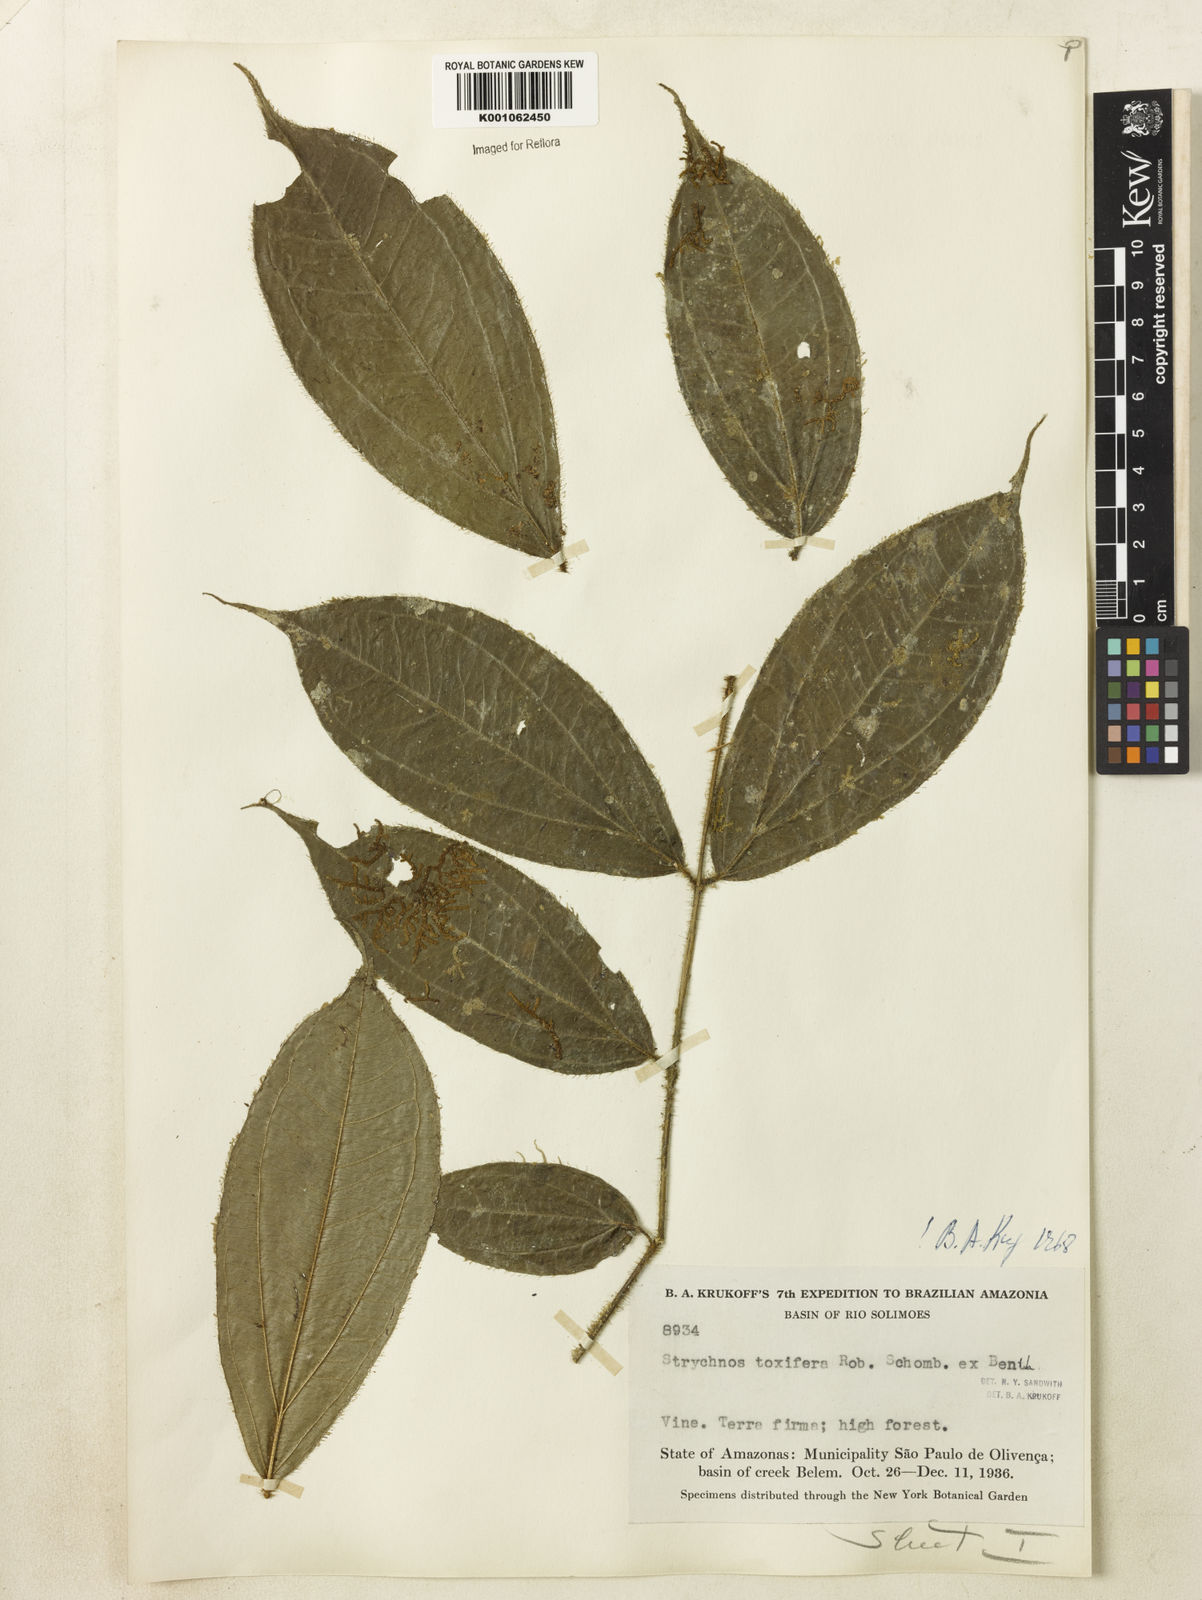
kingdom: Plantae
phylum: Tracheophyta
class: Magnoliopsida
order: Gentianales
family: Loganiaceae
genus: Strychnos
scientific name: Strychnos
